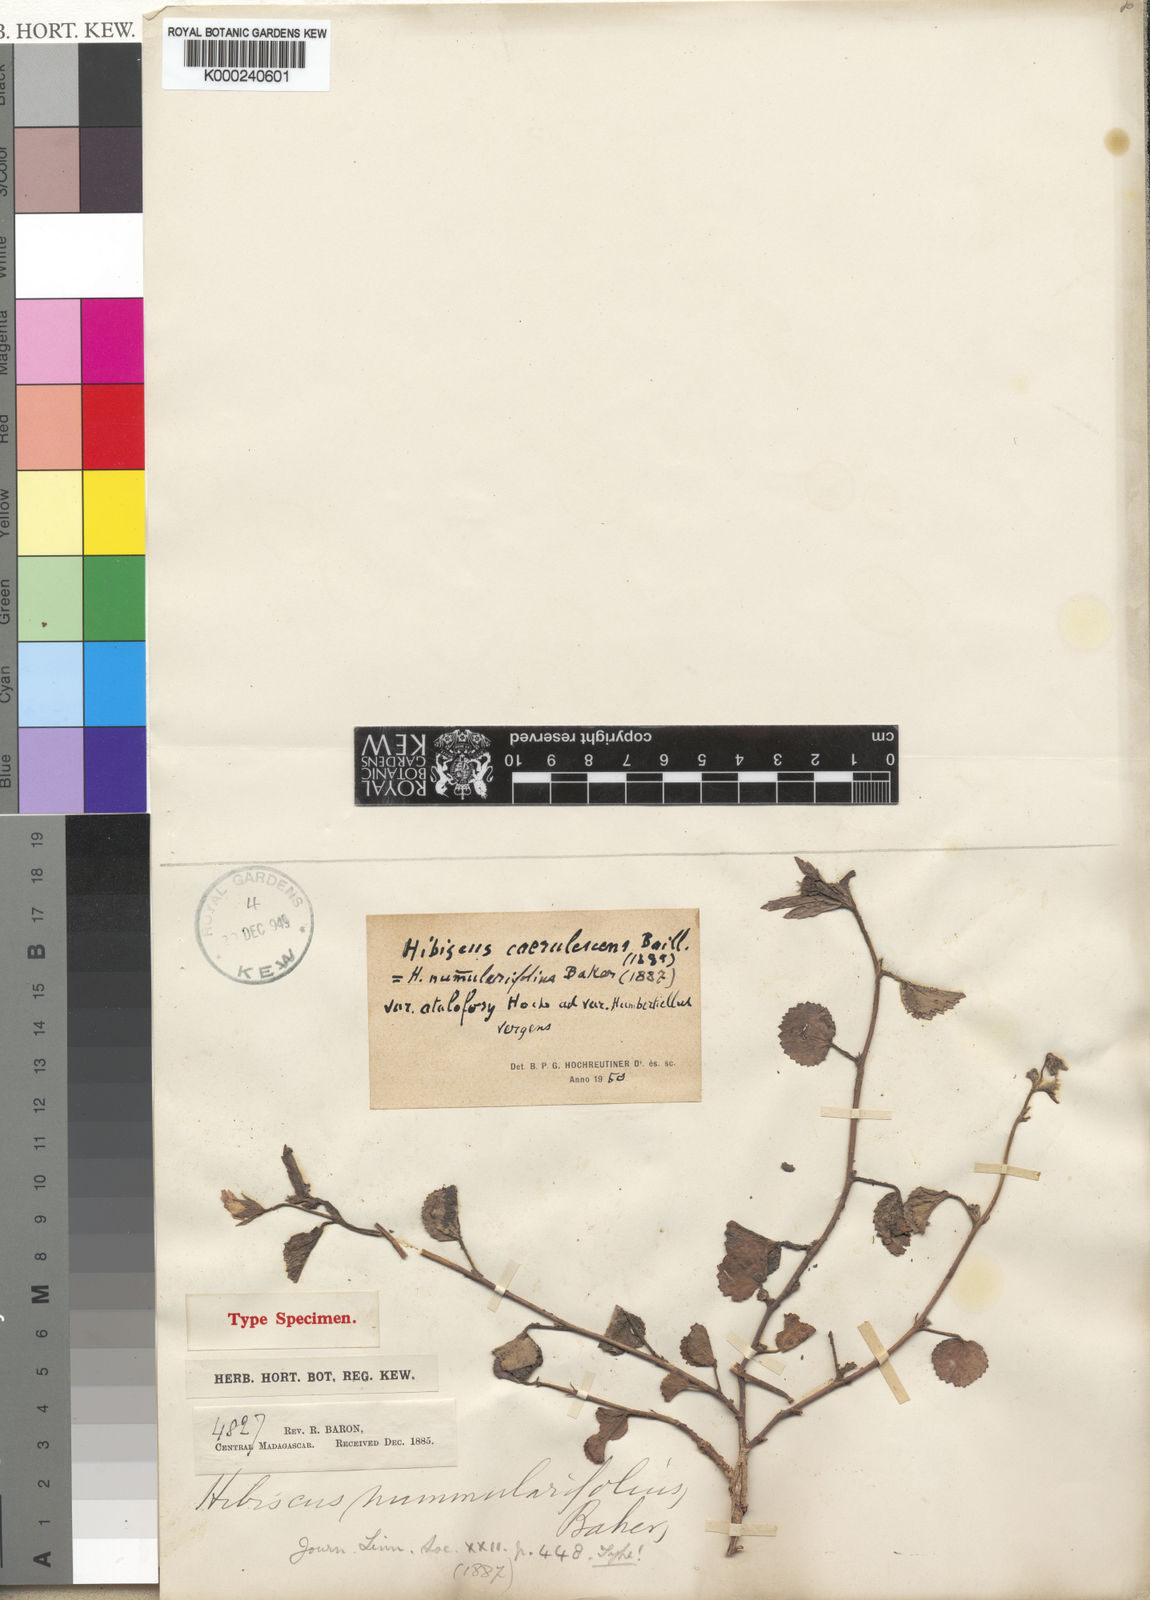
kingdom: Plantae
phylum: Tracheophyta
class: Magnoliopsida
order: Malvales
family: Malvaceae
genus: Hibiscus
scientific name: Hibiscus caerulescens
